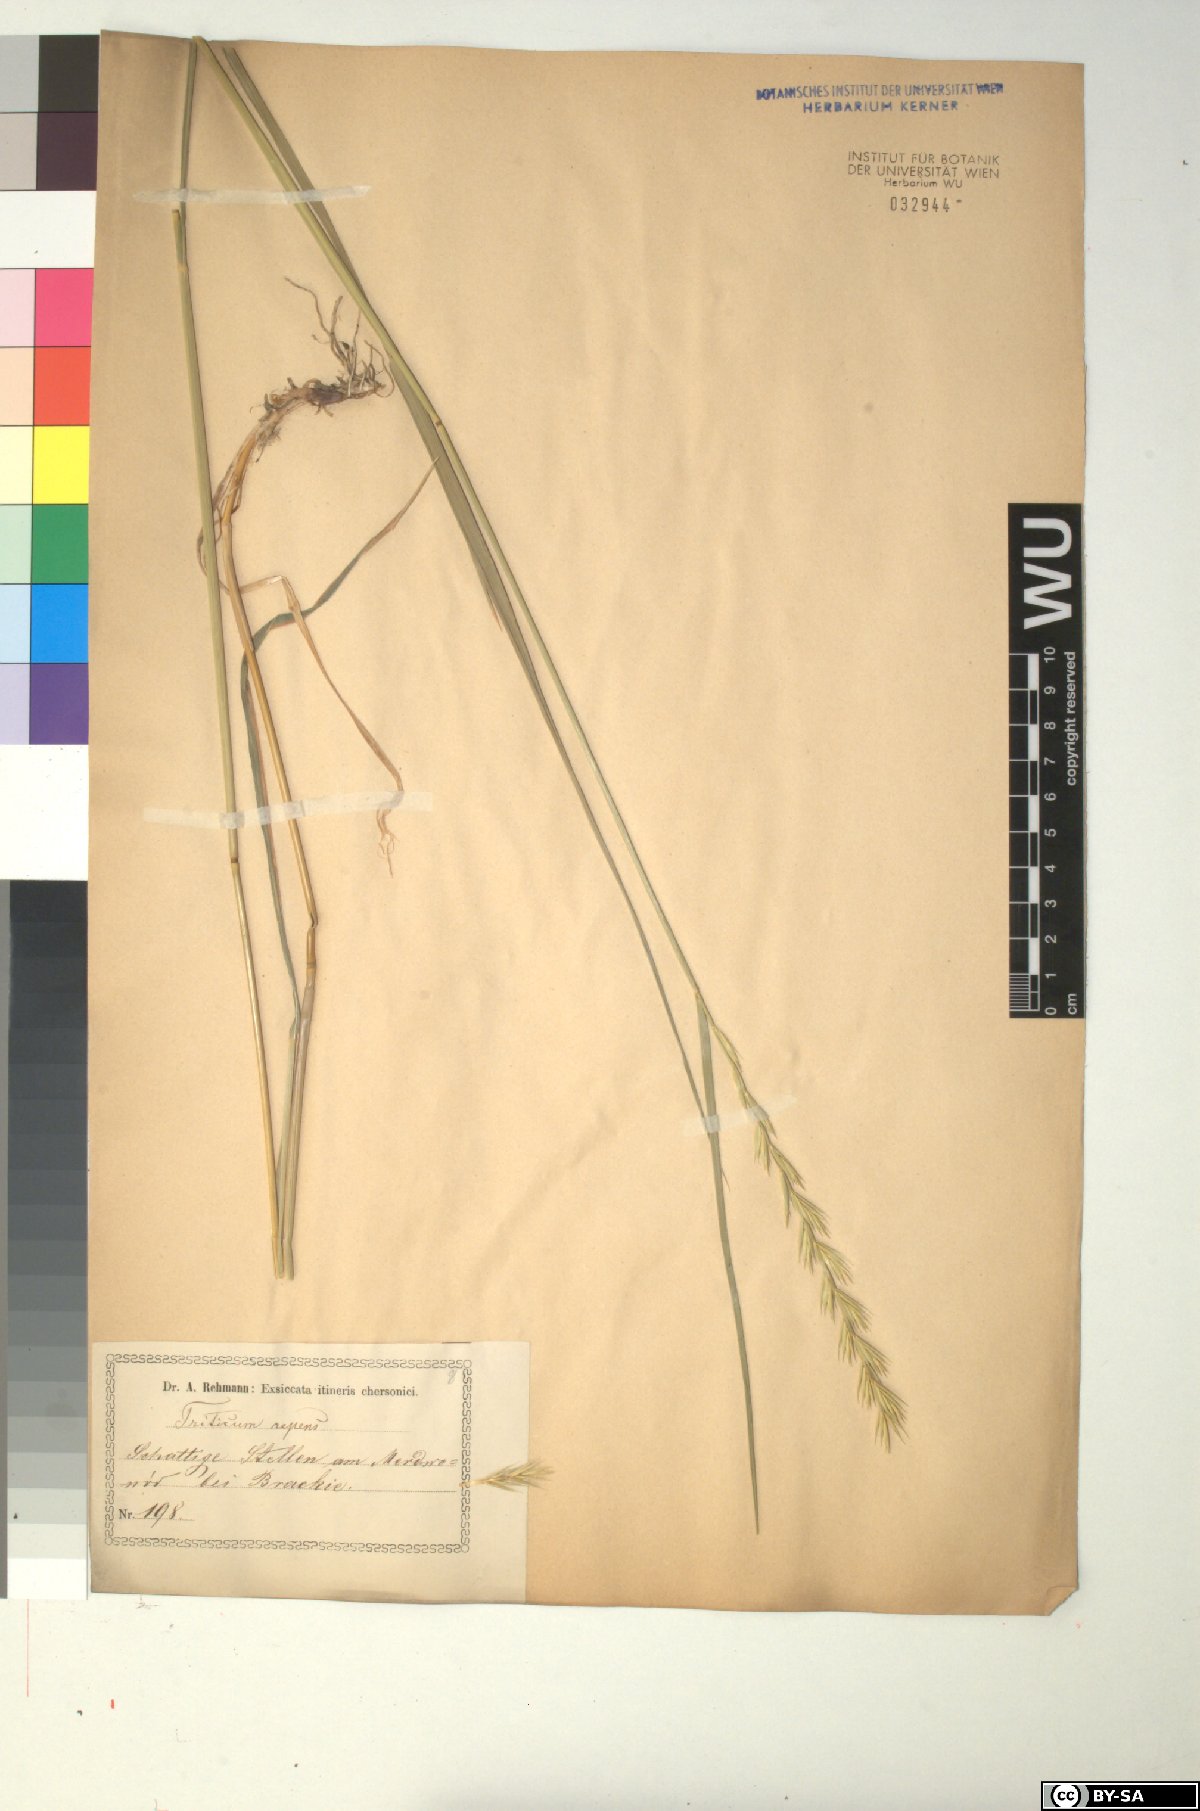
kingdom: Plantae
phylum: Tracheophyta
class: Liliopsida
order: Poales
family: Poaceae
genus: Elymus
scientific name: Elymus repens
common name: Quackgrass
